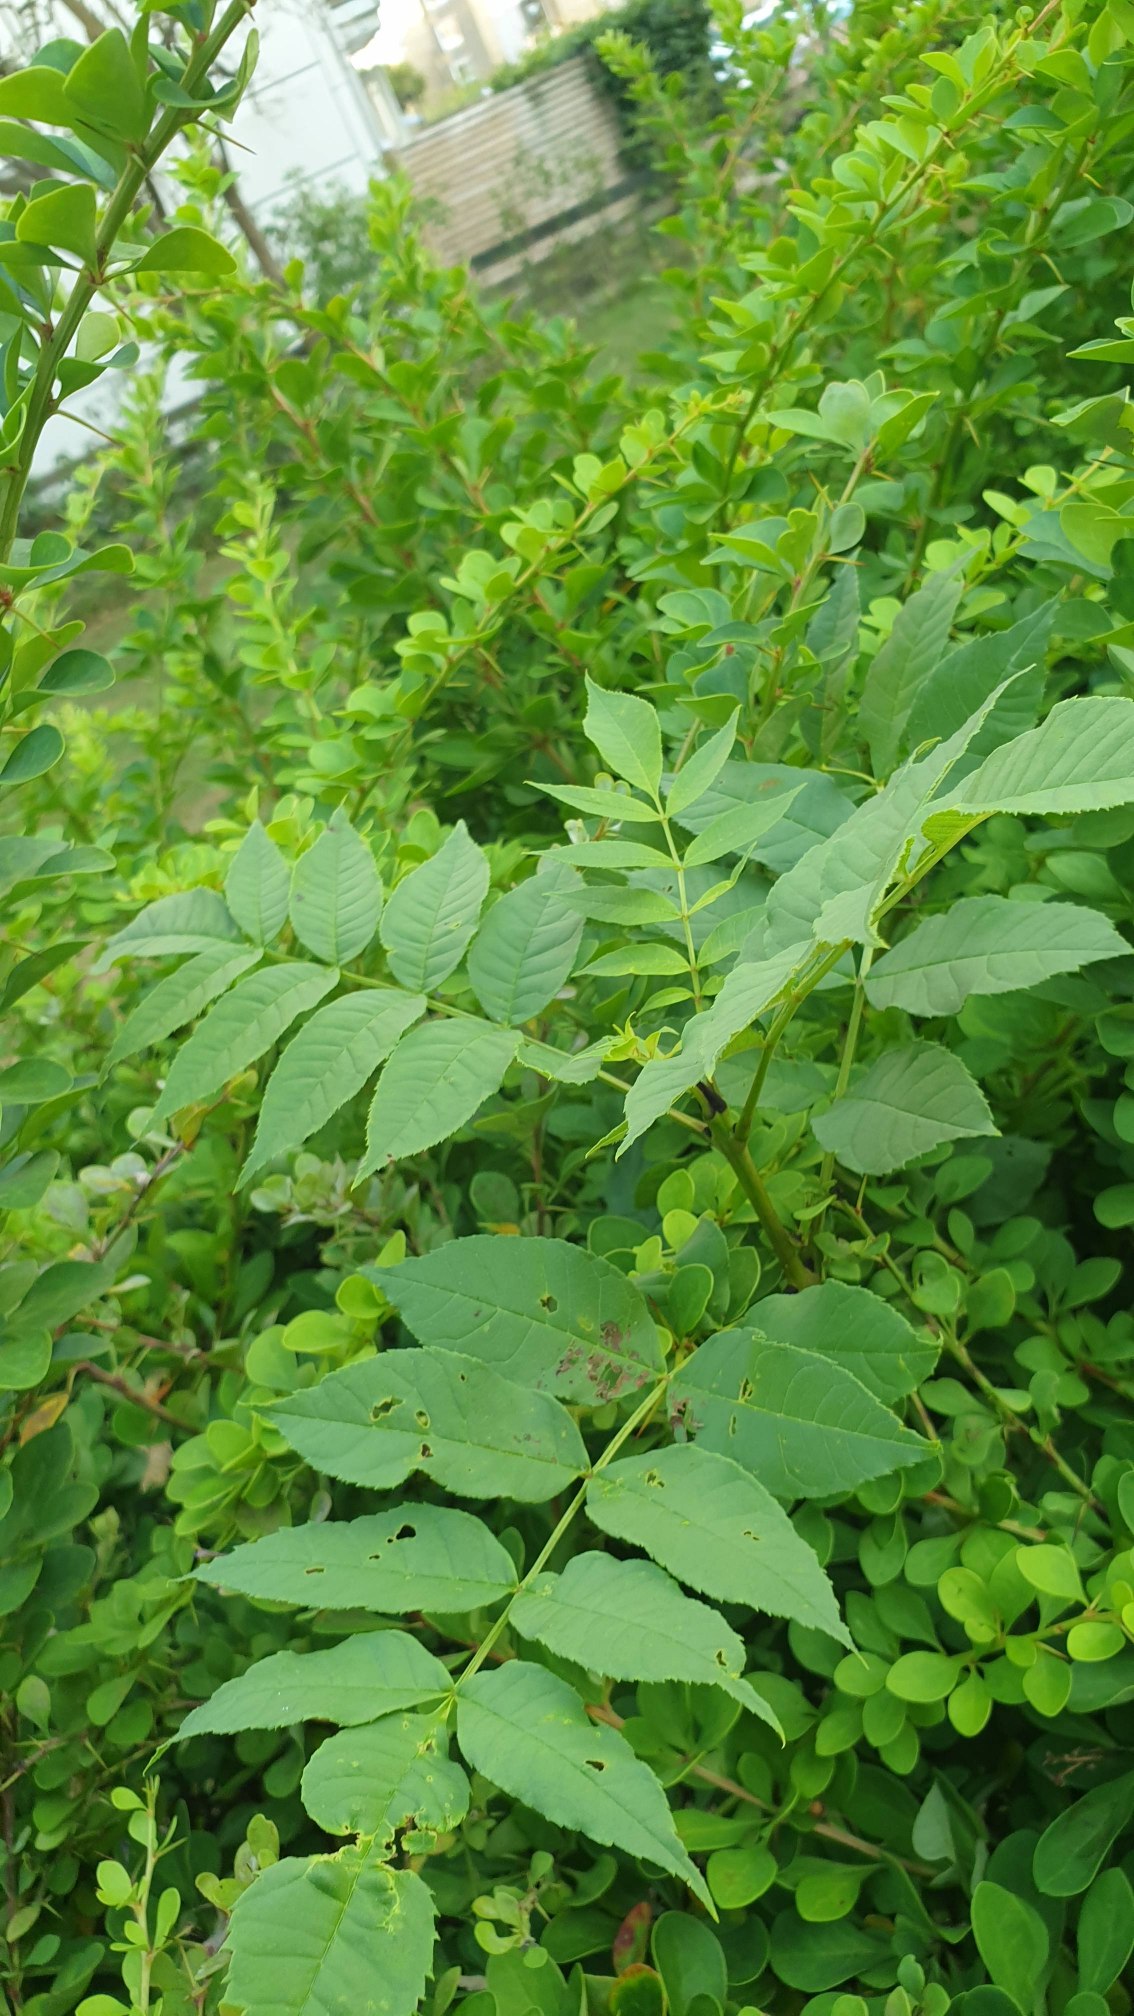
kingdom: Plantae
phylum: Tracheophyta
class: Magnoliopsida
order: Lamiales
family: Oleaceae
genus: Fraxinus
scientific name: Fraxinus excelsior
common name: Ask
